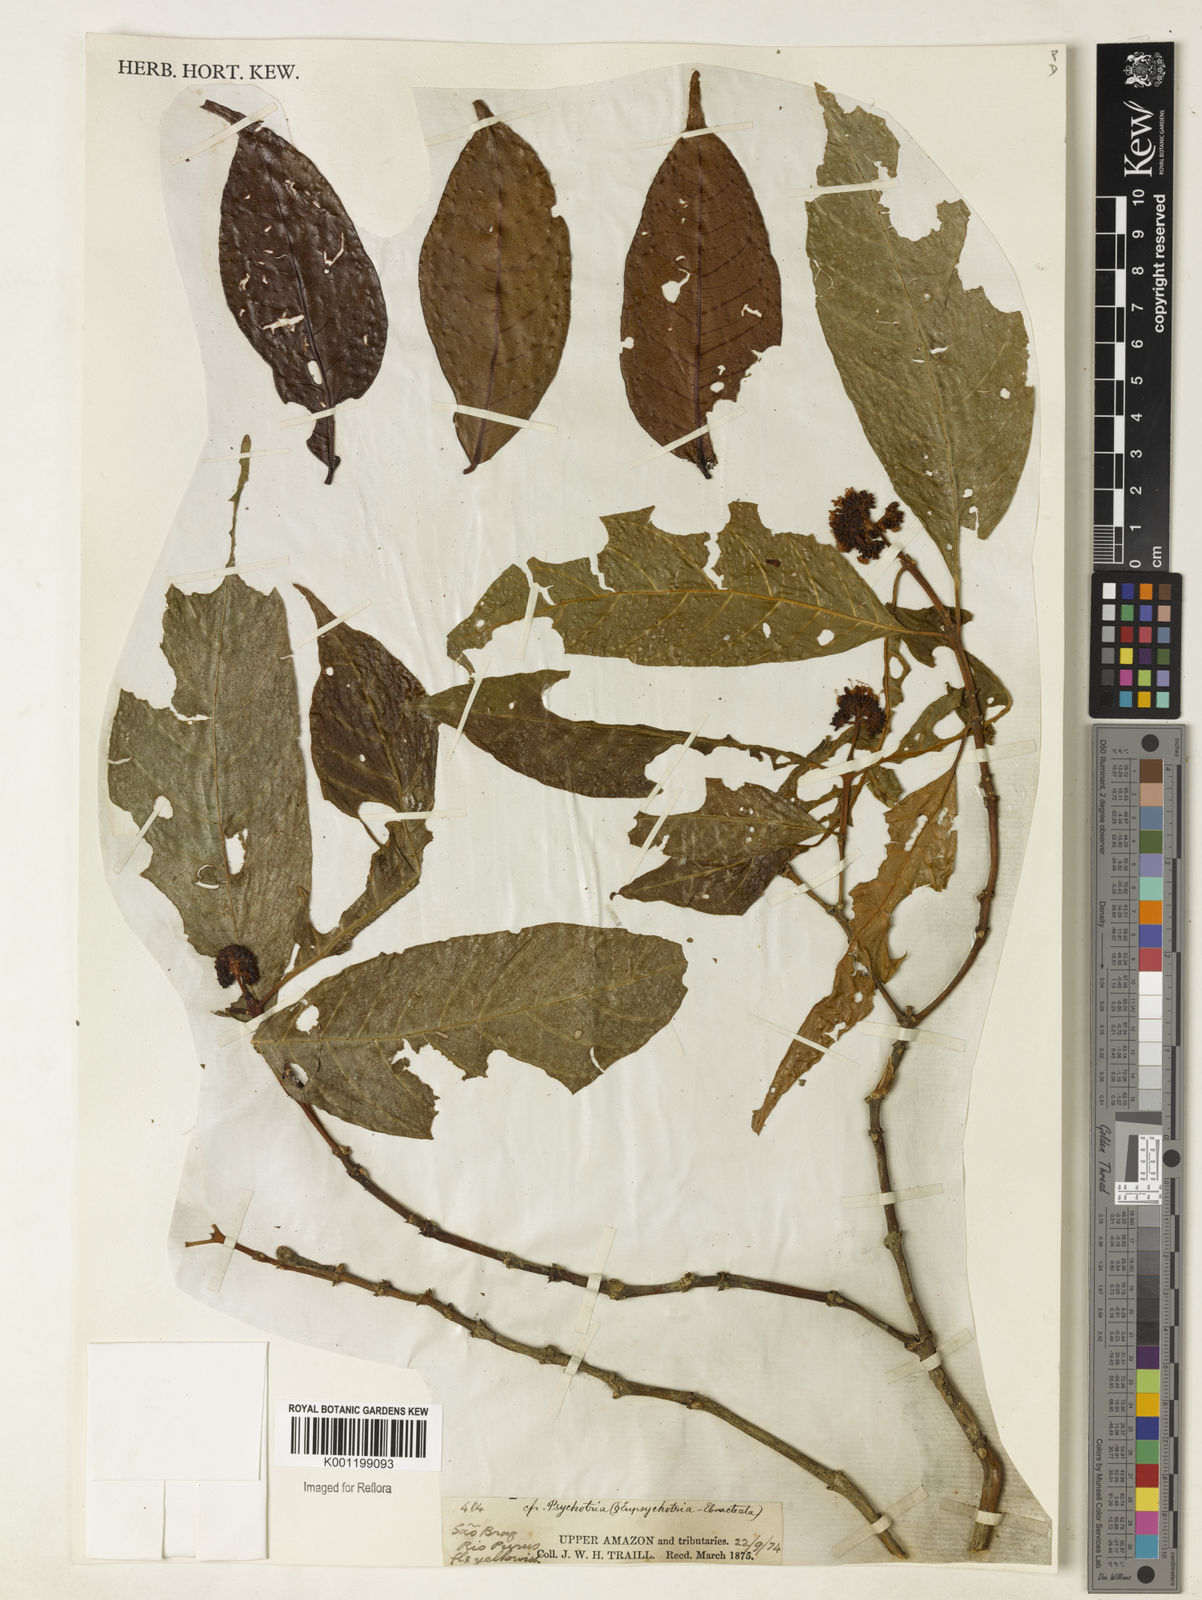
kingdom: Plantae
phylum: Tracheophyta
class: Magnoliopsida
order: Gentianales
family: Rubiaceae
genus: Palicourea
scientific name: Palicourea cuspidata
